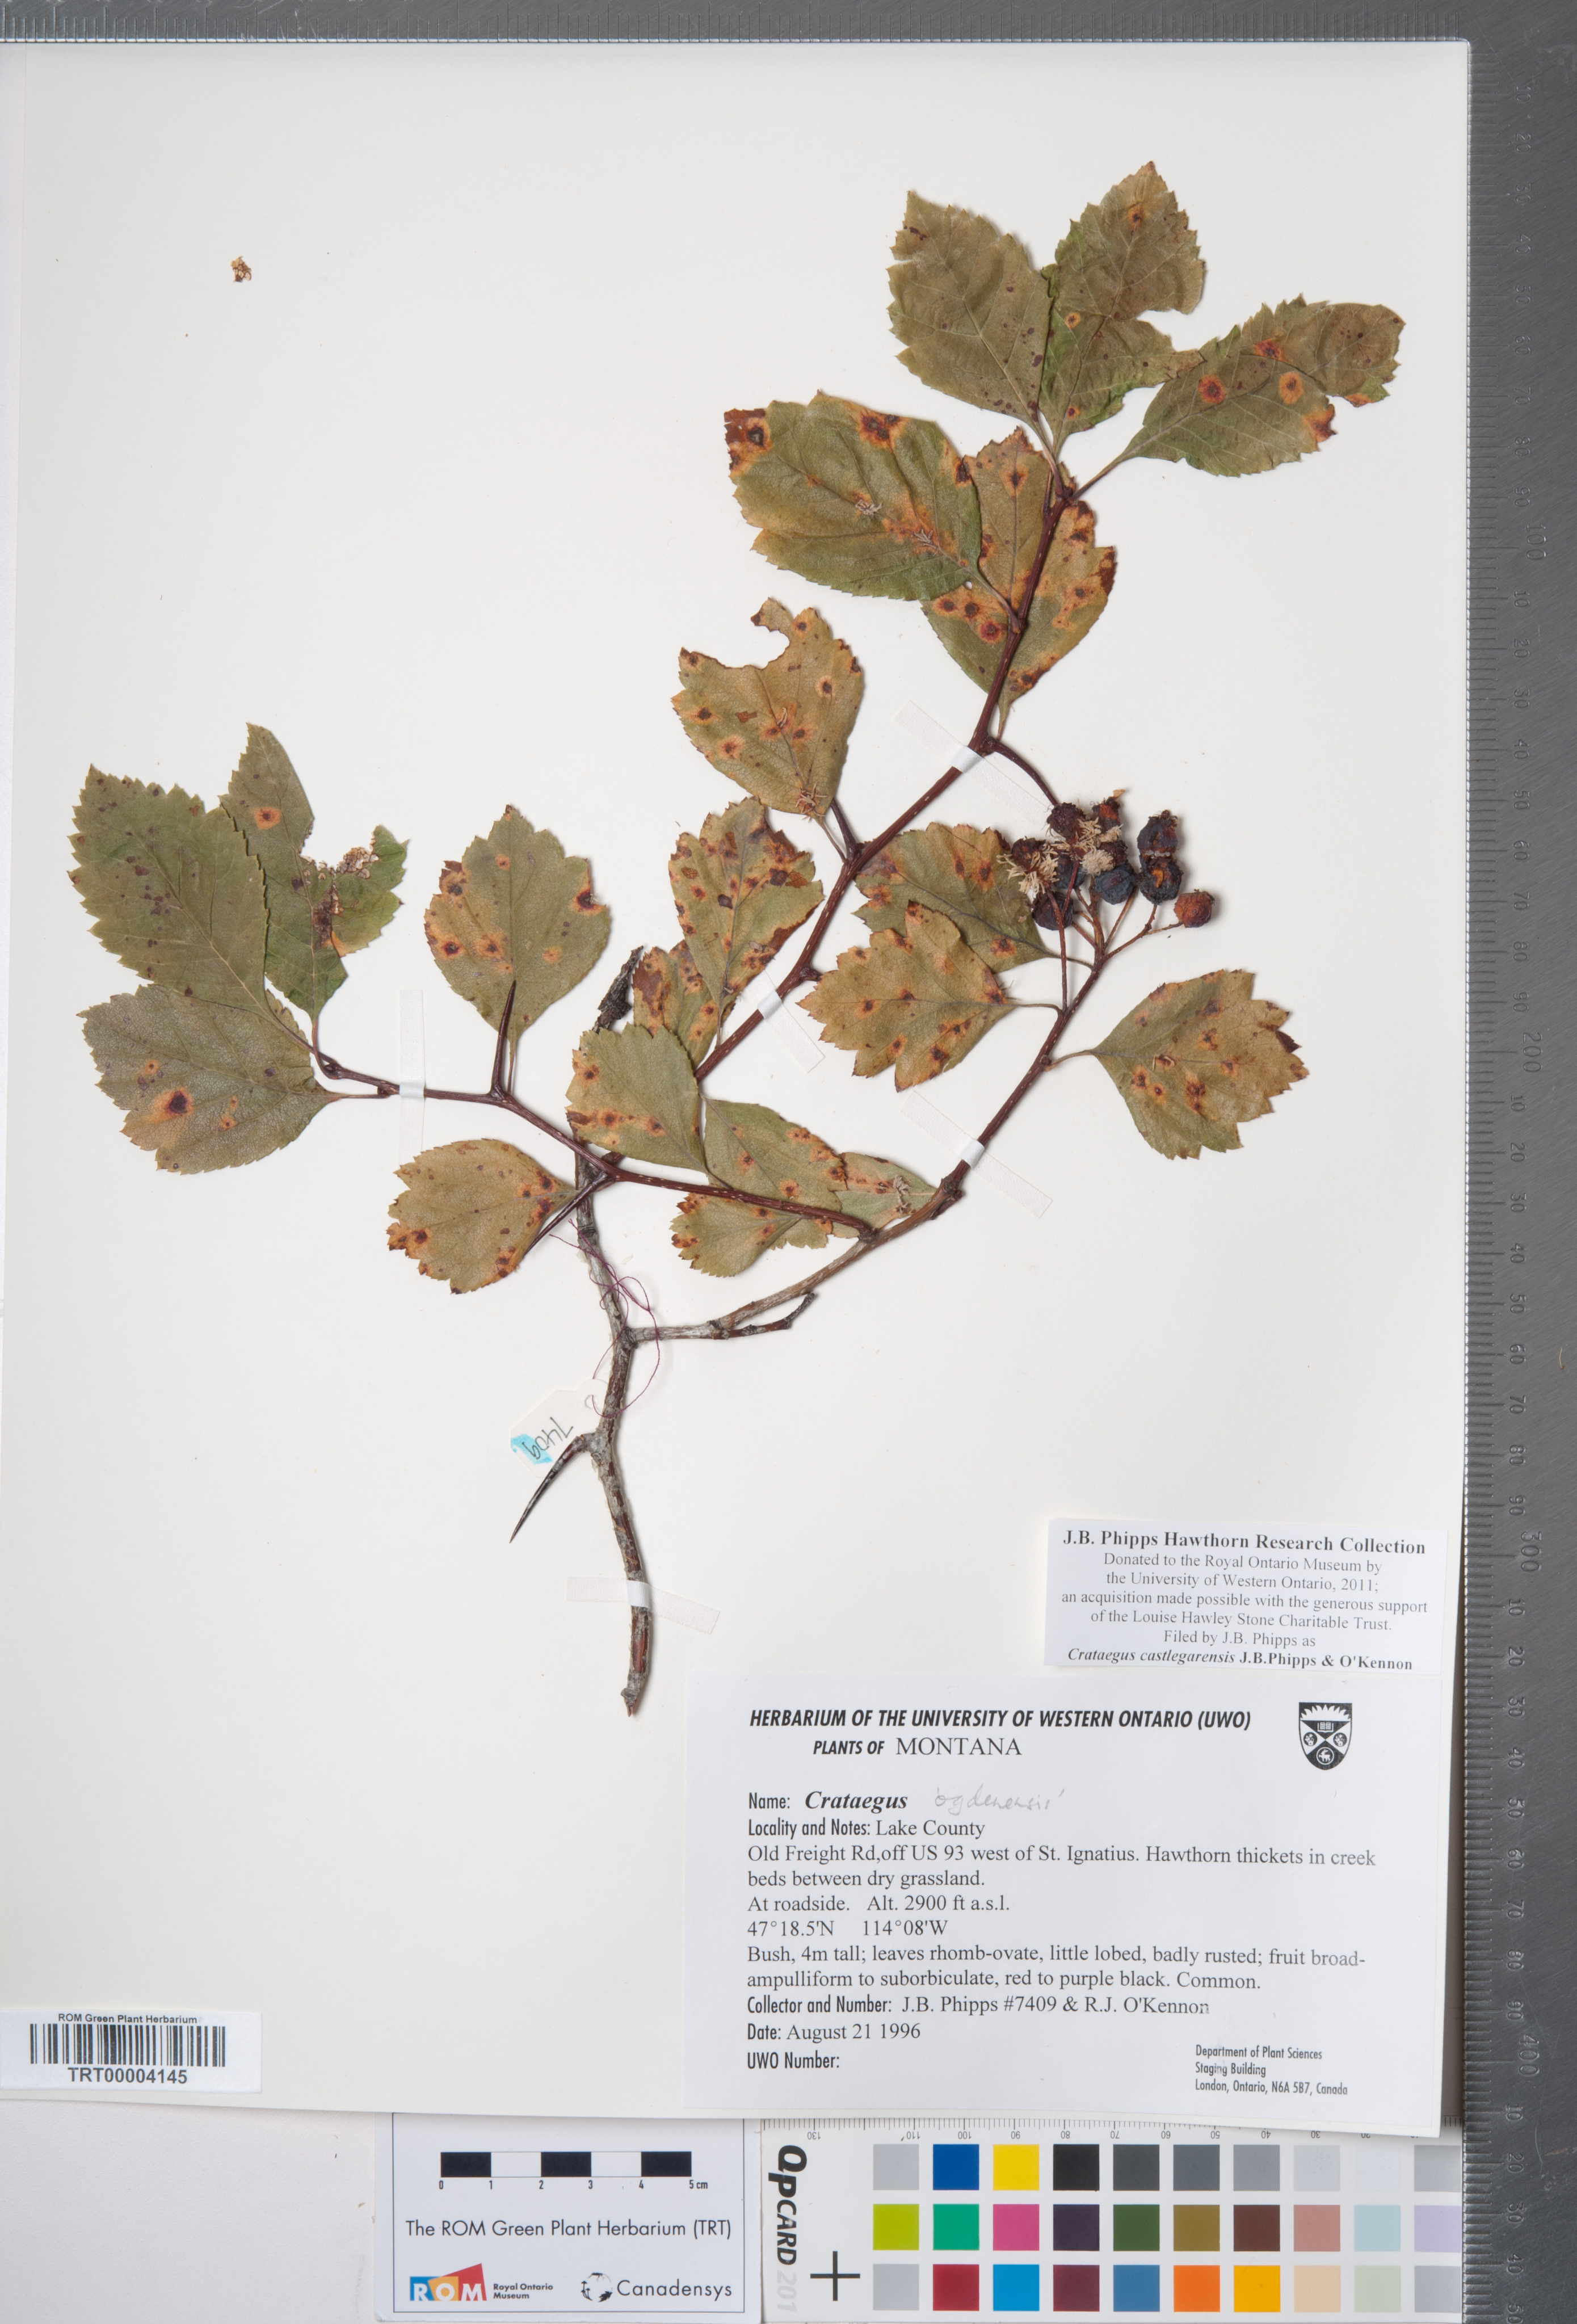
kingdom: Plantae
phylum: Tracheophyta
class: Magnoliopsida
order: Rosales
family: Rosaceae
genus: Crataegus
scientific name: Crataegus castlegarensis
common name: Castlegar hawthorn
